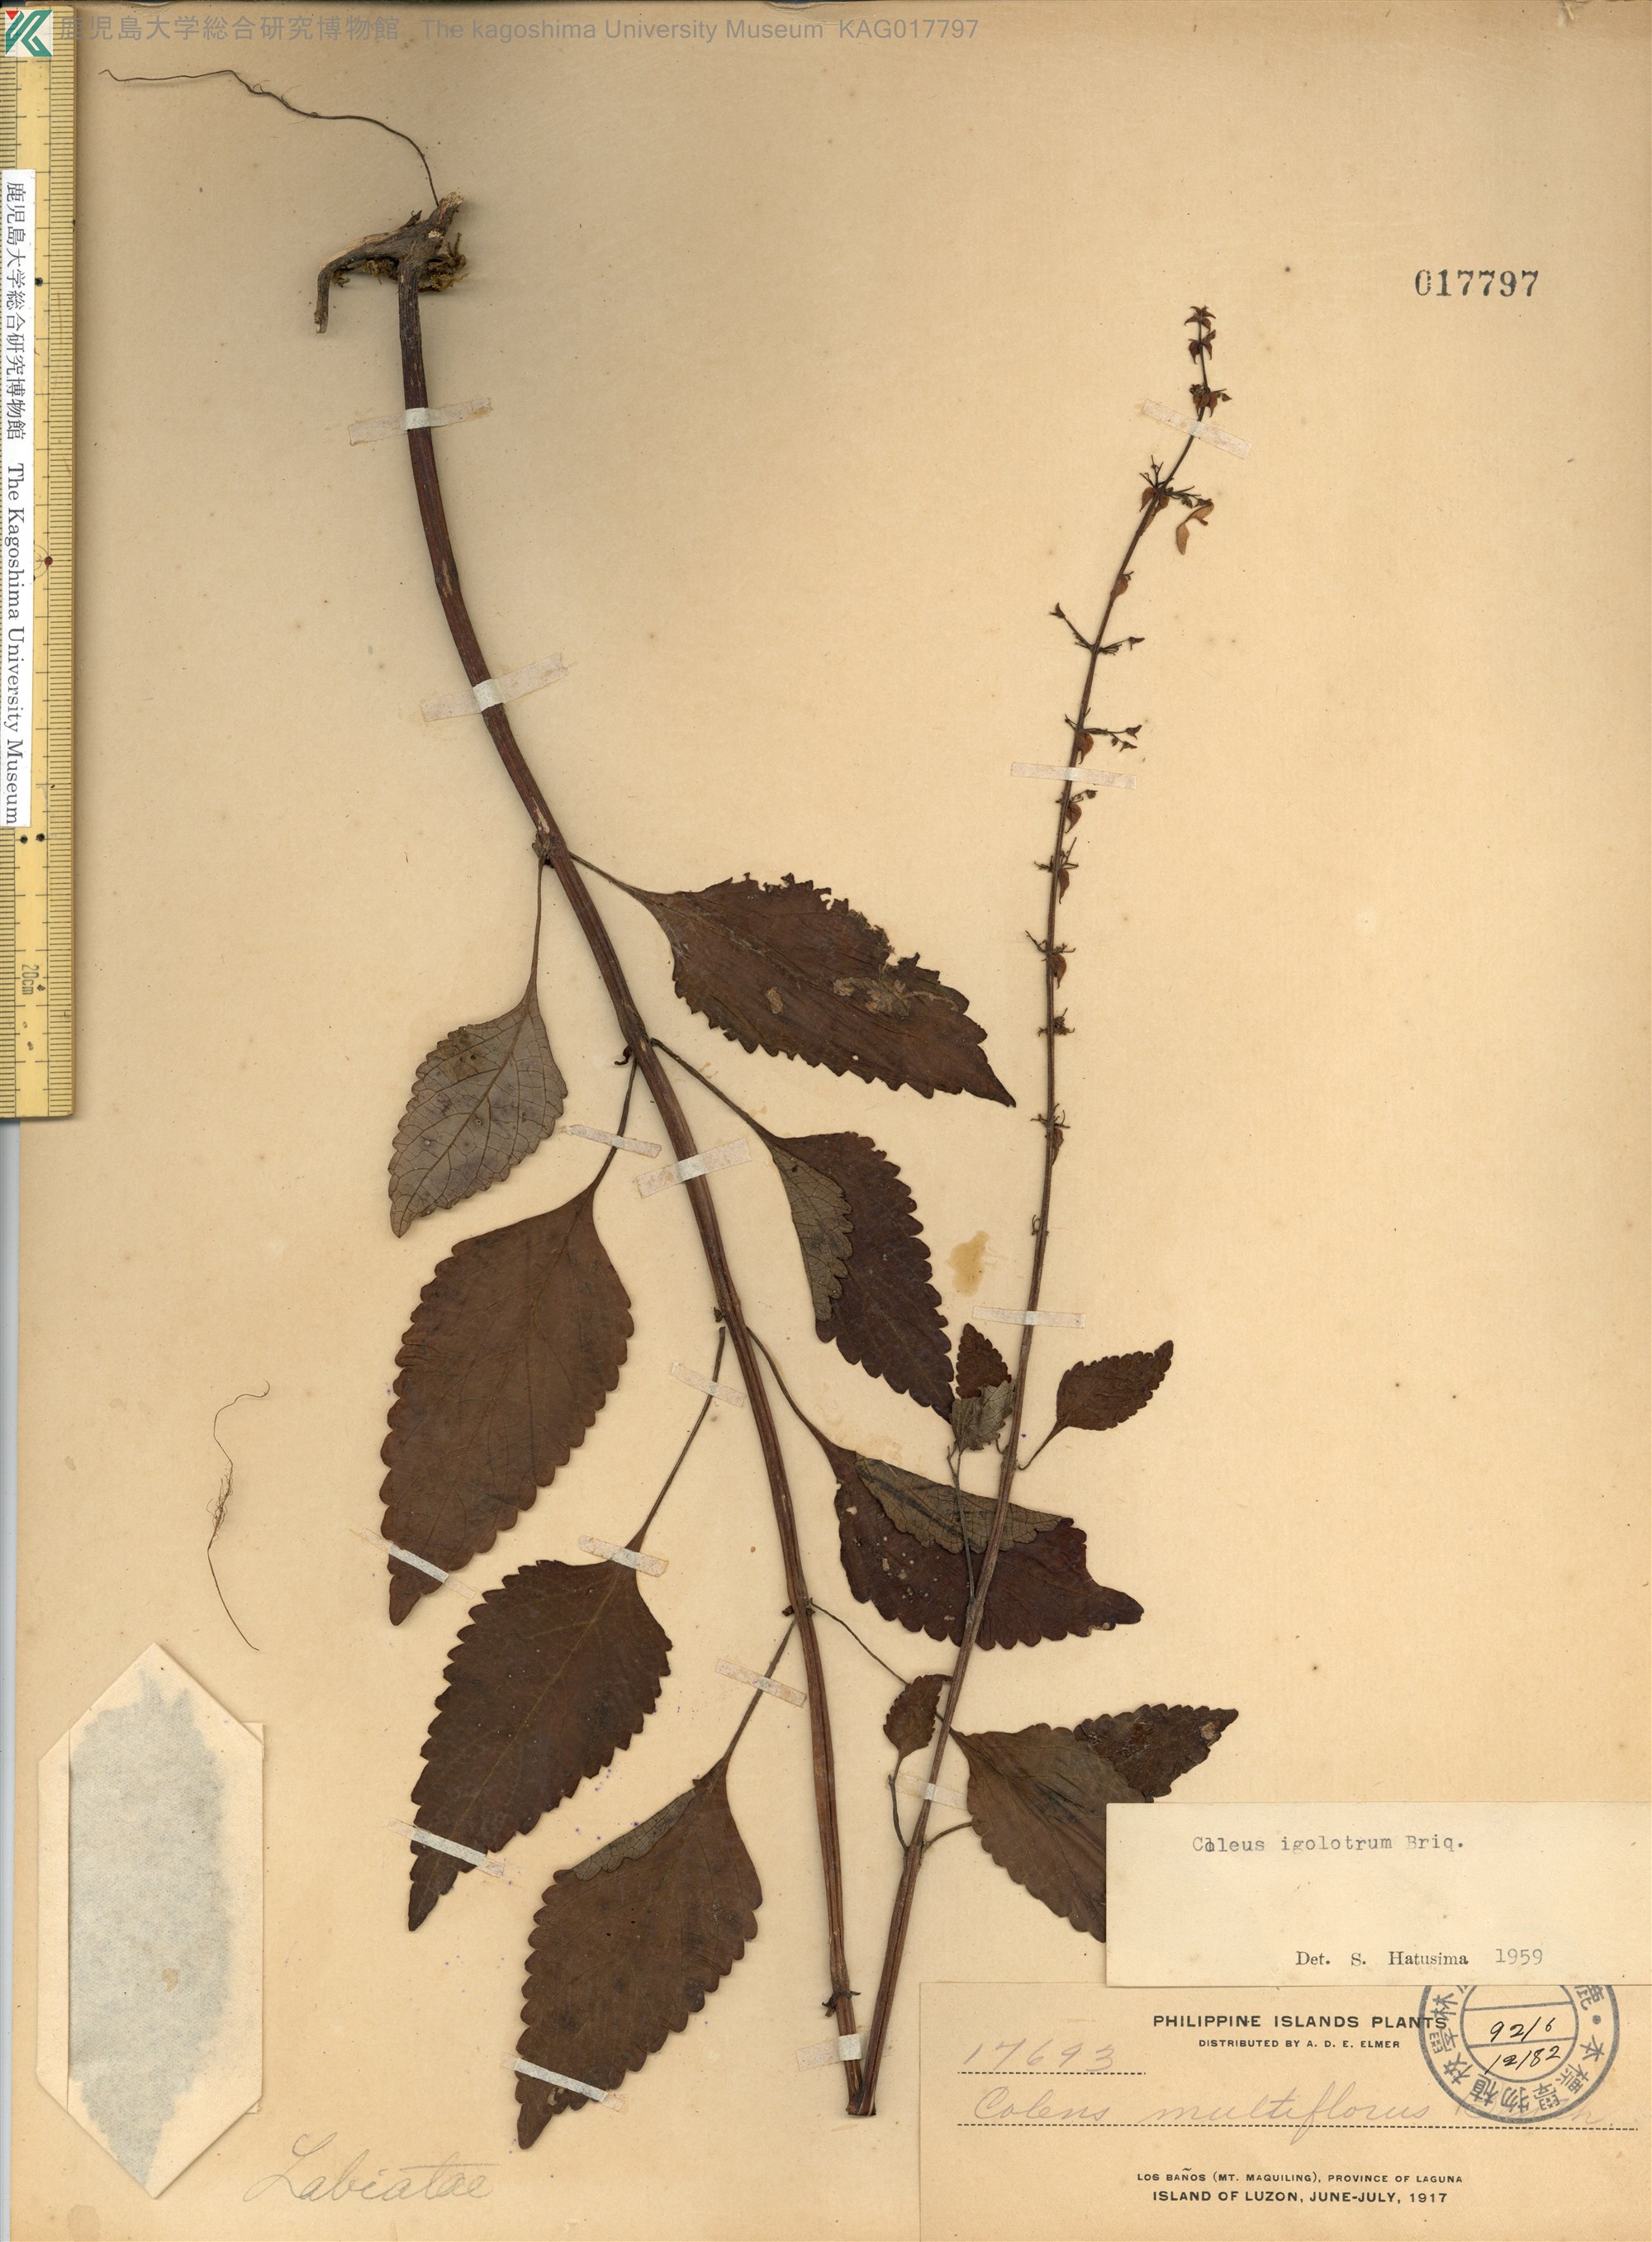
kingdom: Plantae
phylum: Tracheophyta
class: Magnoliopsida
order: Lamiales
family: Lamiaceae
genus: Coleus
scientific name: Coleus scutellarioides
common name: Coleus
